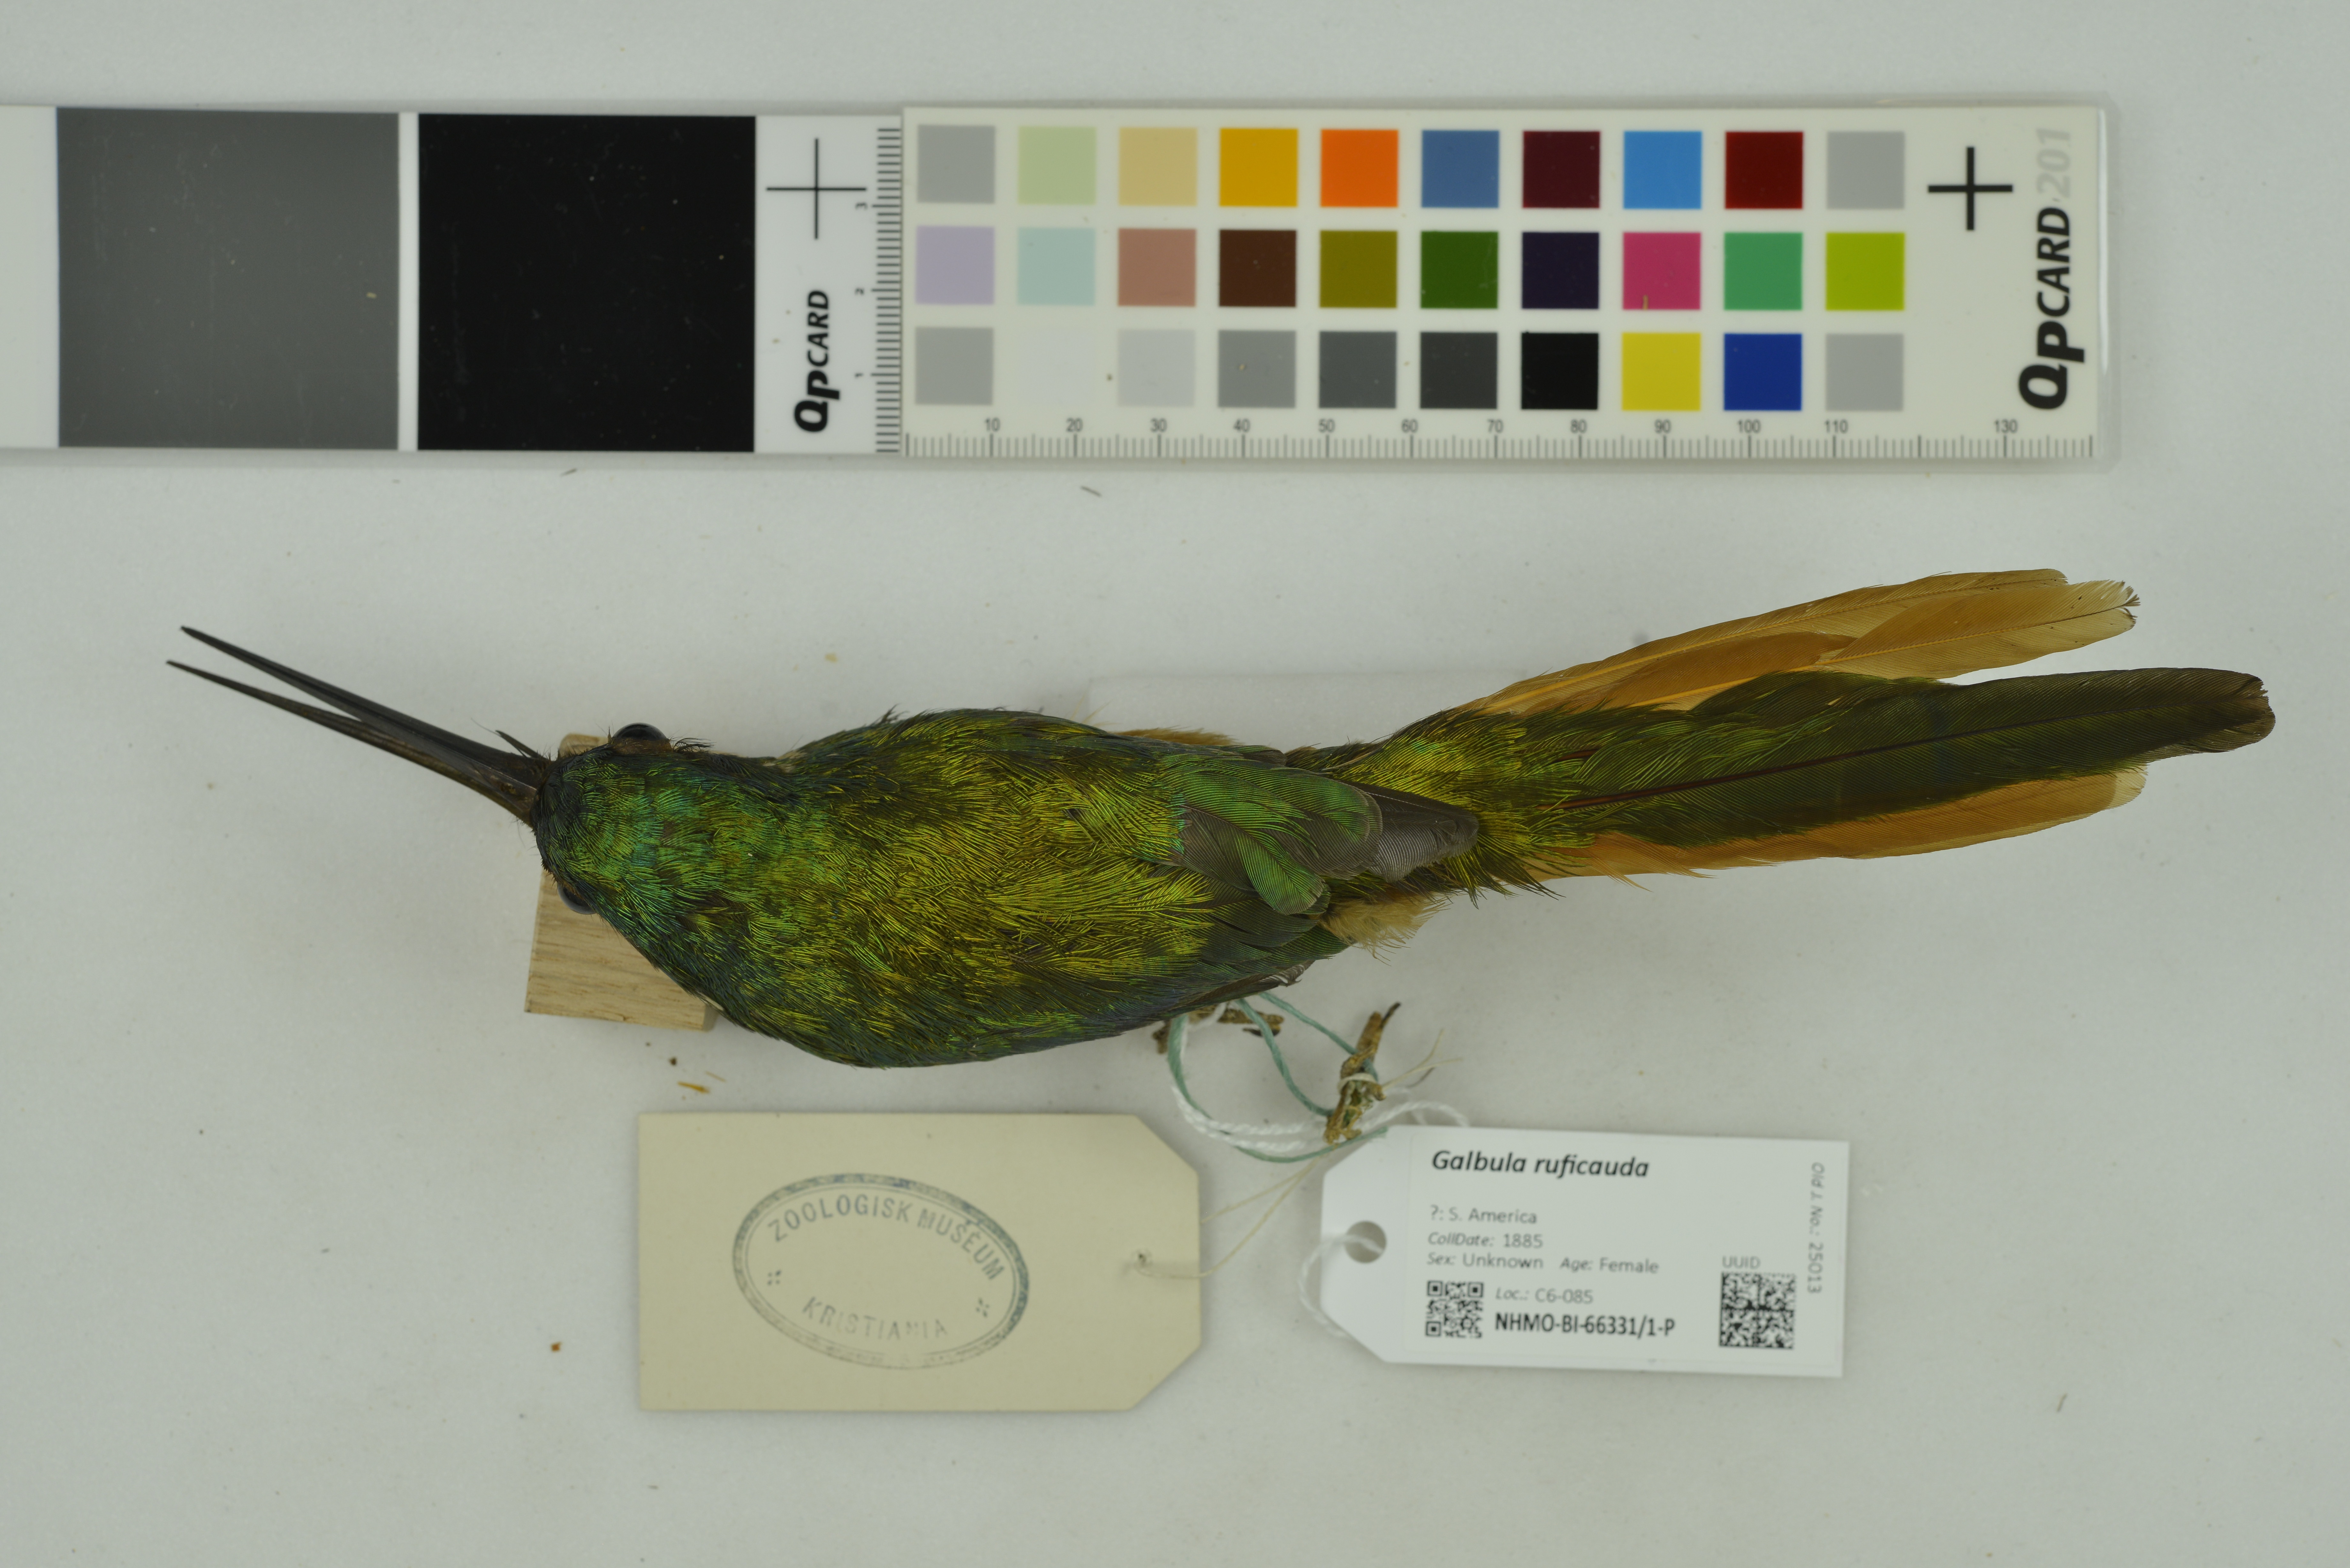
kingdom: Animalia
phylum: Chordata
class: Aves
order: Piciformes
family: Galbulidae
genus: Galbula
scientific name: Galbula ruficauda
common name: Rufous-tailed jacamar
